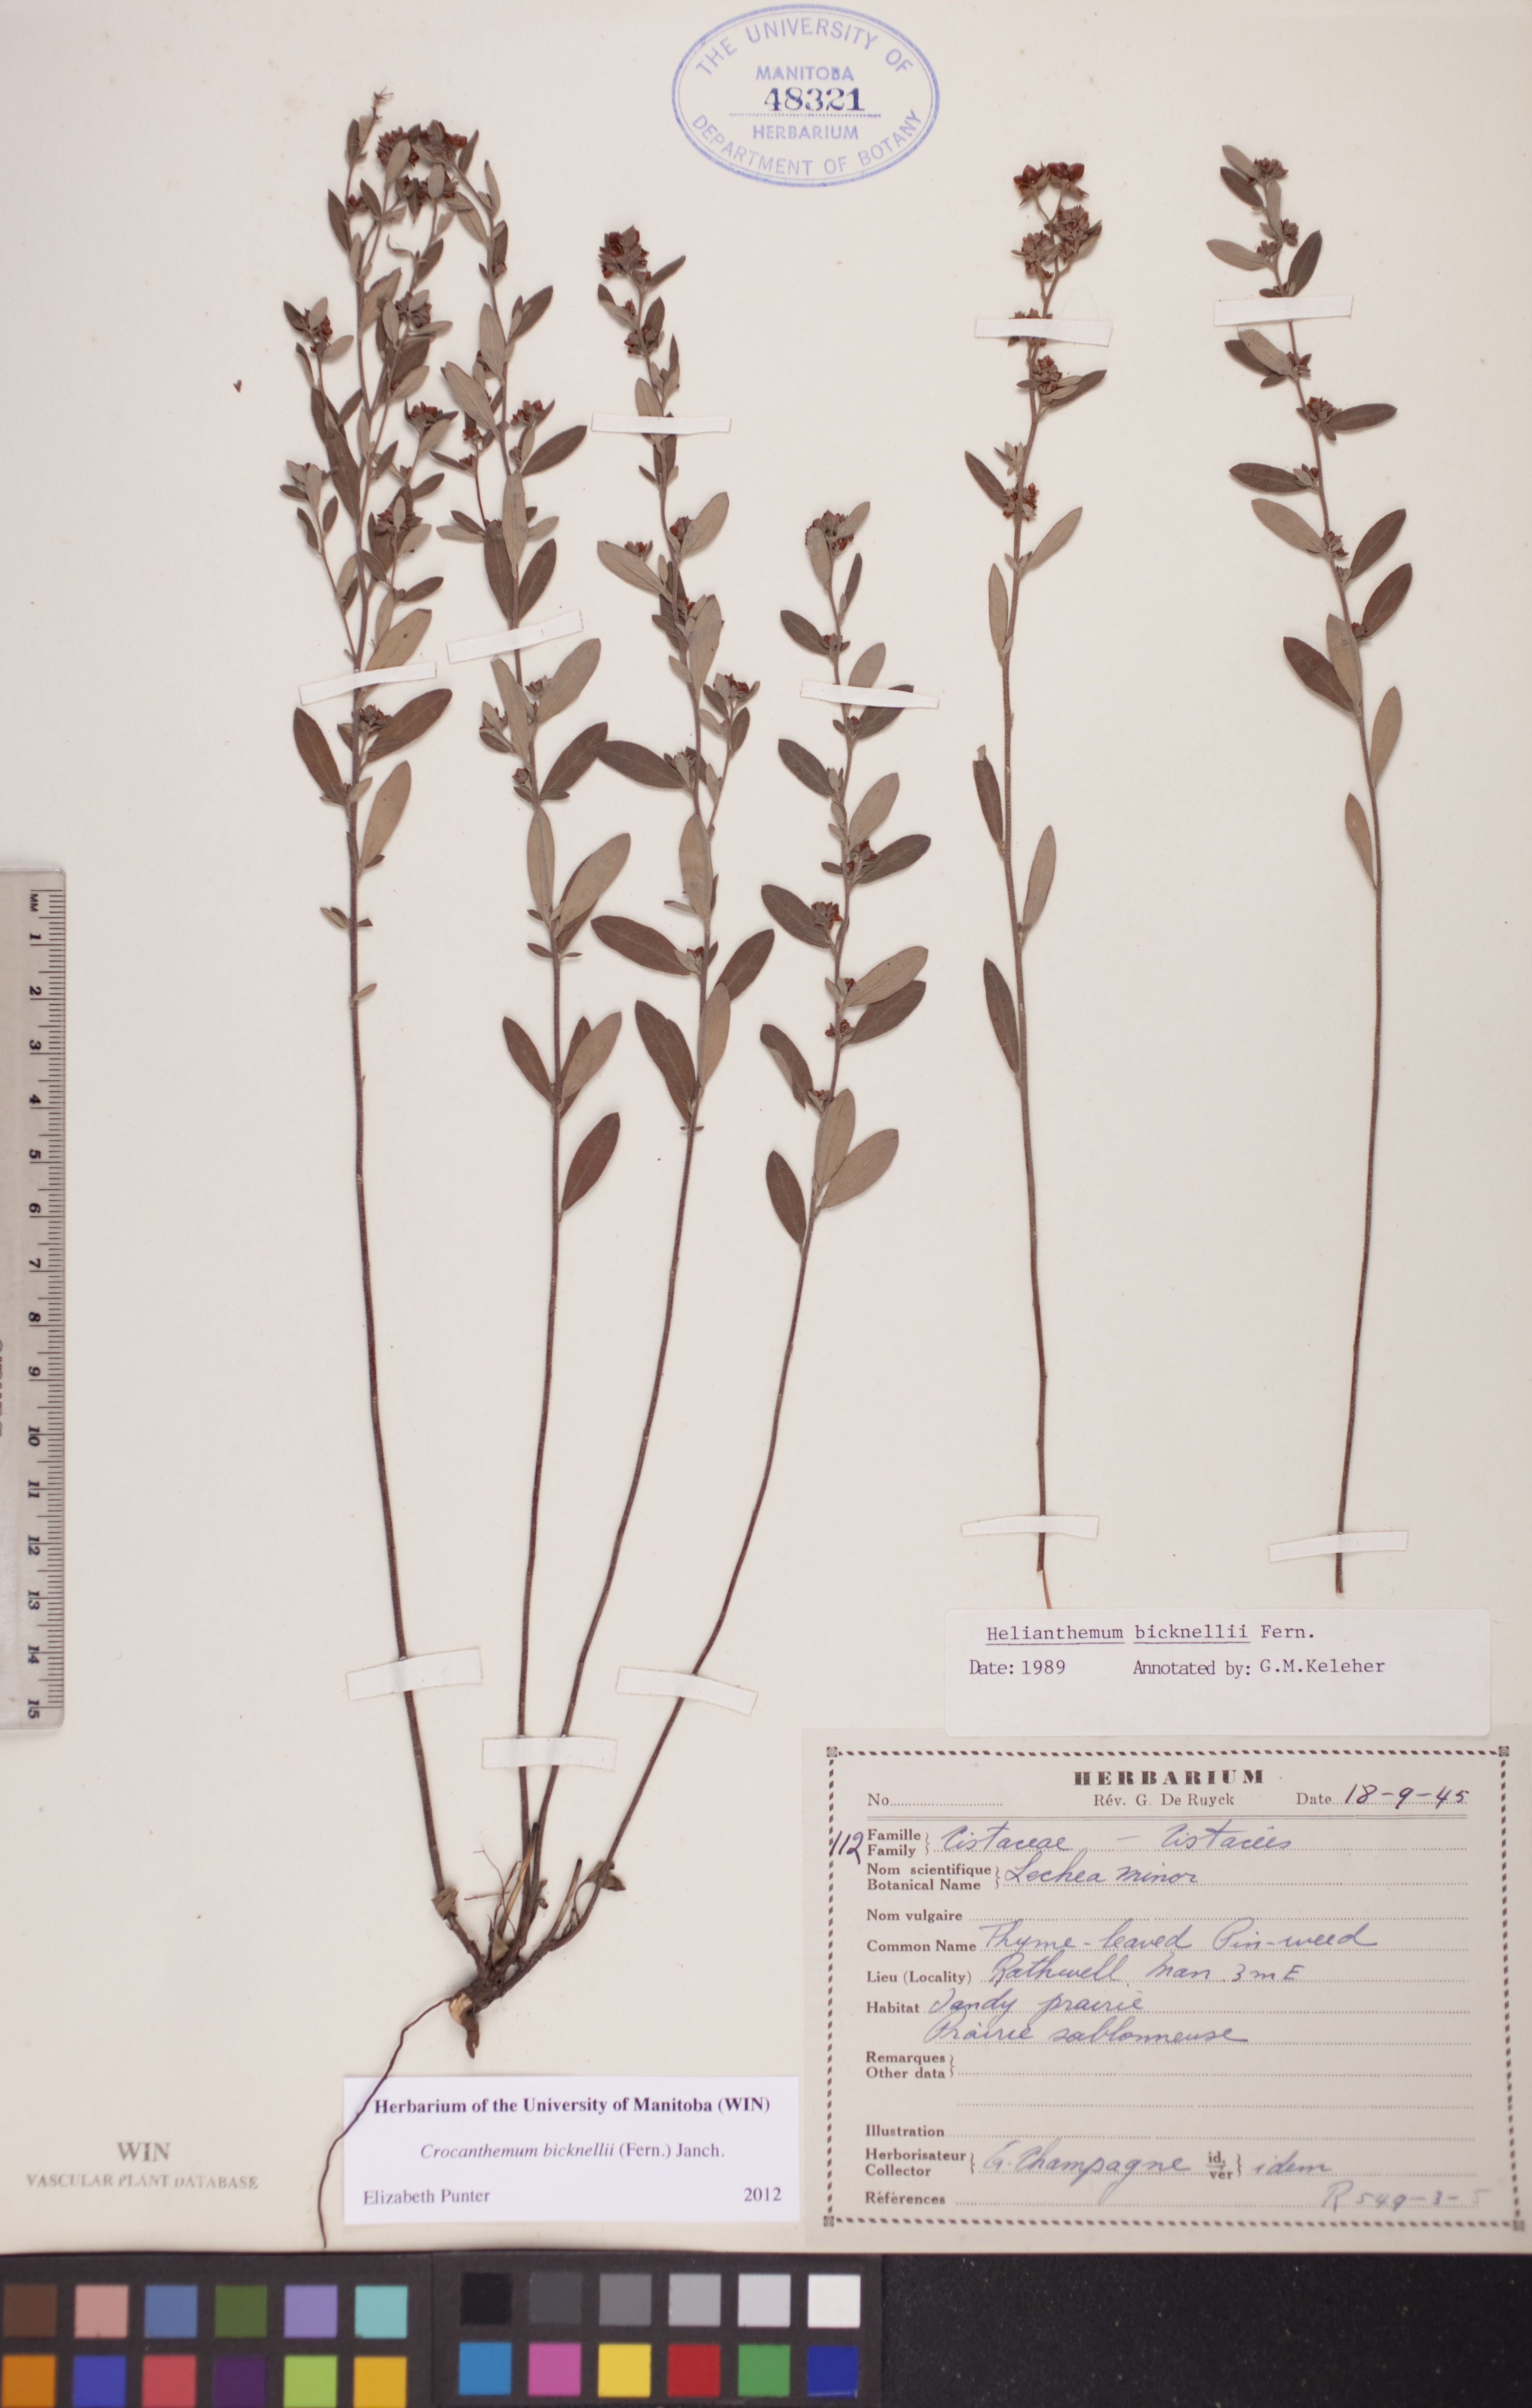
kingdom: Plantae
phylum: Tracheophyta
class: Magnoliopsida
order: Malvales
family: Cistaceae
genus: Crocanthemum
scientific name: Crocanthemum bicknellii
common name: Hoary frostweed
